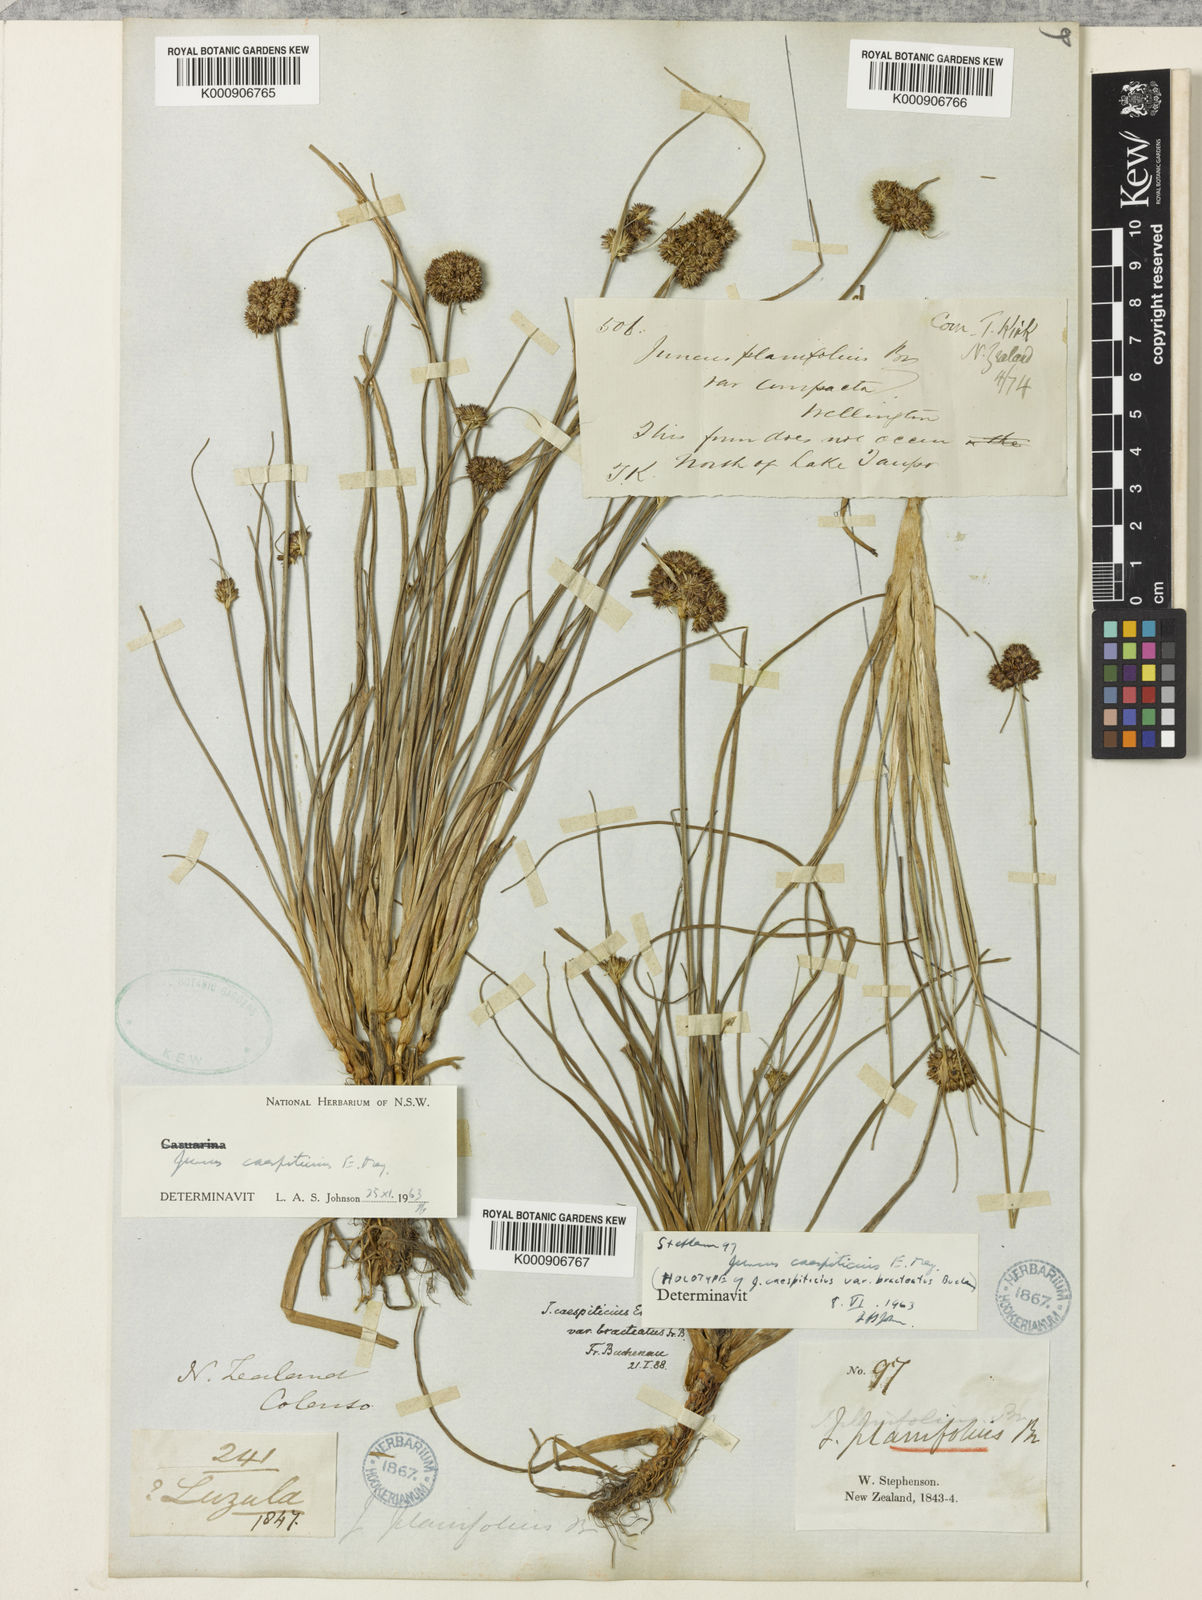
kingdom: Plantae
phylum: Tracheophyta
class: Liliopsida
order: Poales
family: Juncaceae
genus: Juncus
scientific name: Juncus caespiticius
